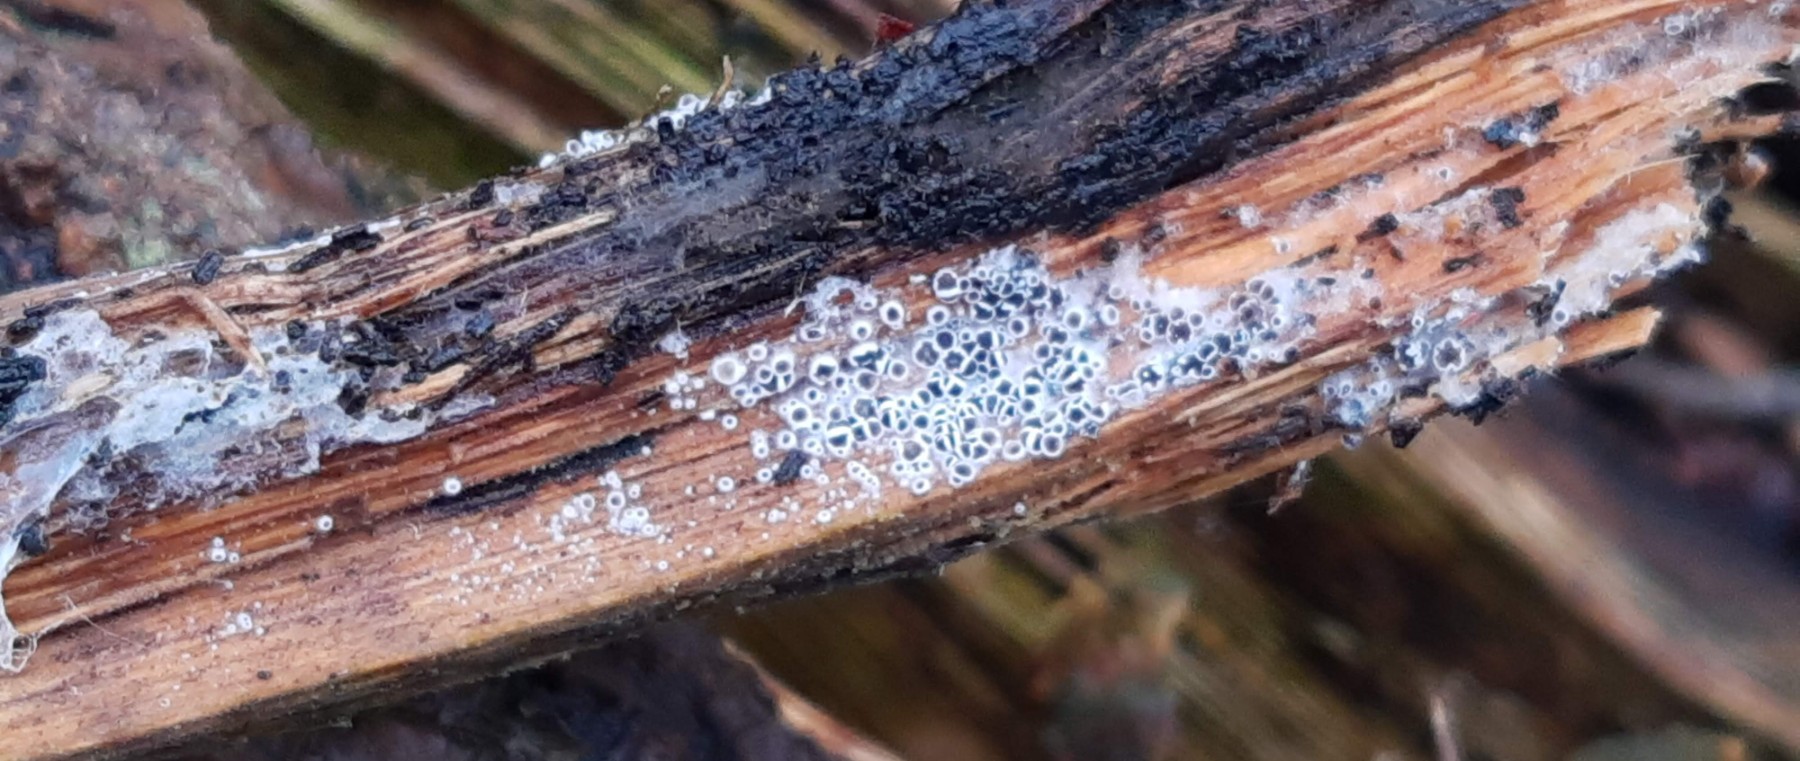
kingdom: Fungi
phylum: Ascomycota
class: Leotiomycetes
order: Helotiales
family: Arachnopezizaceae
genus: Eriopezia
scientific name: Eriopezia caesia
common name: ege-spindskive
